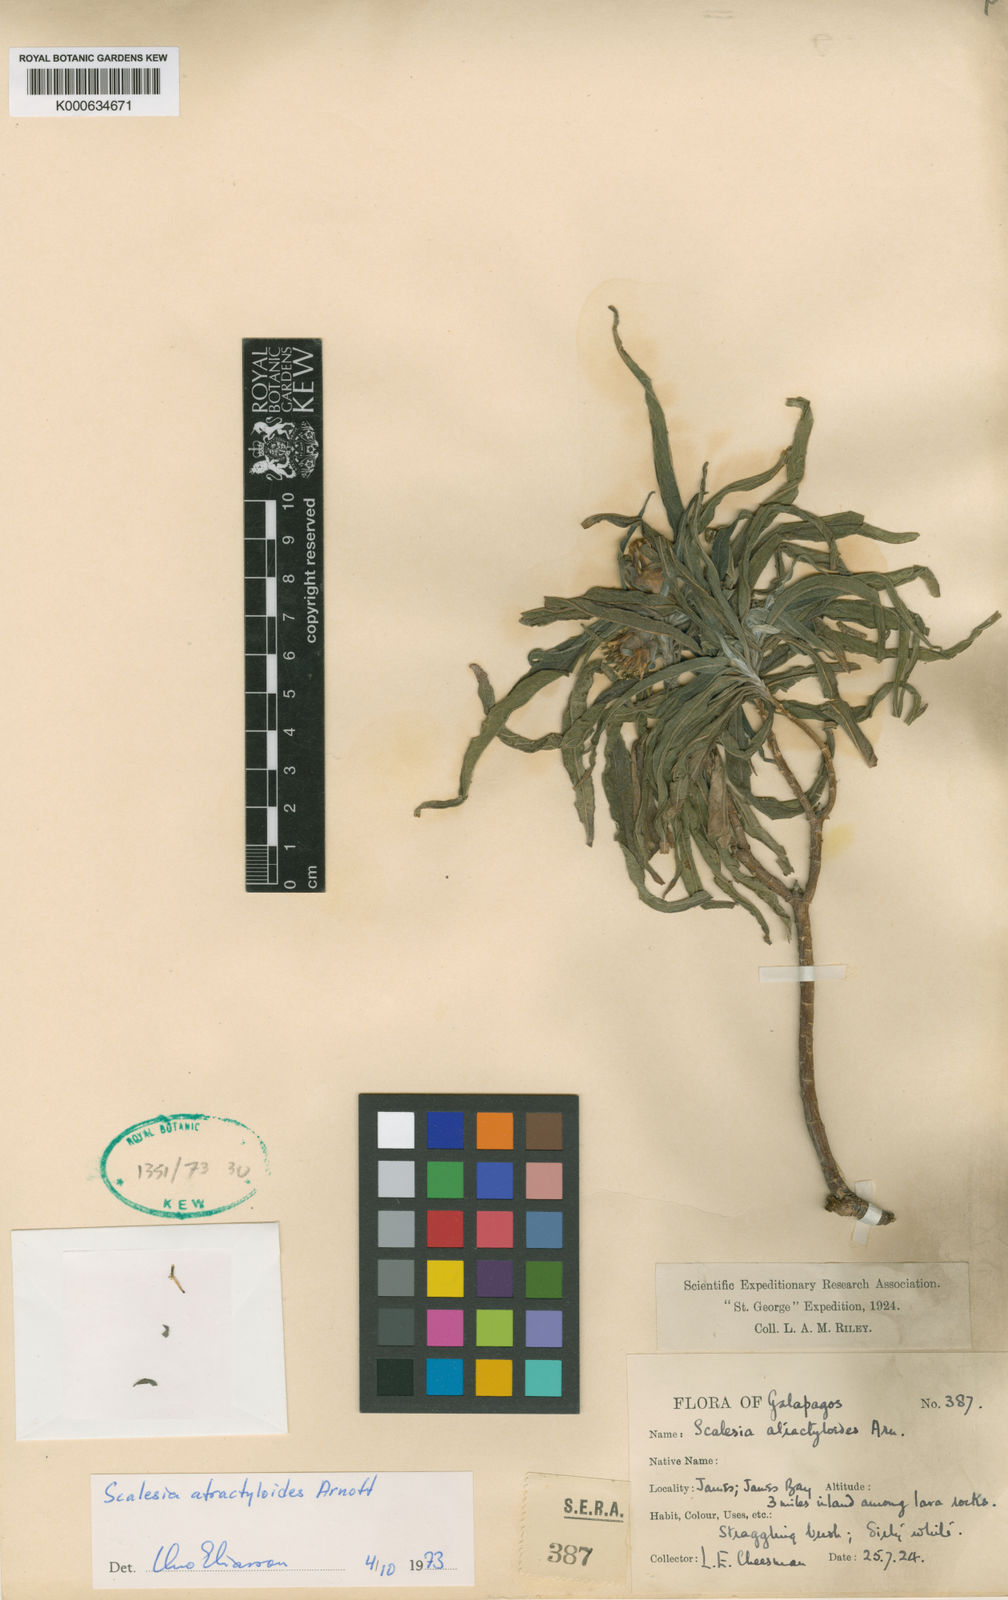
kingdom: Plantae
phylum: Tracheophyta
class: Magnoliopsida
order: Asterales
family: Asteraceae
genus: Scalesia
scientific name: Scalesia atractyloides
